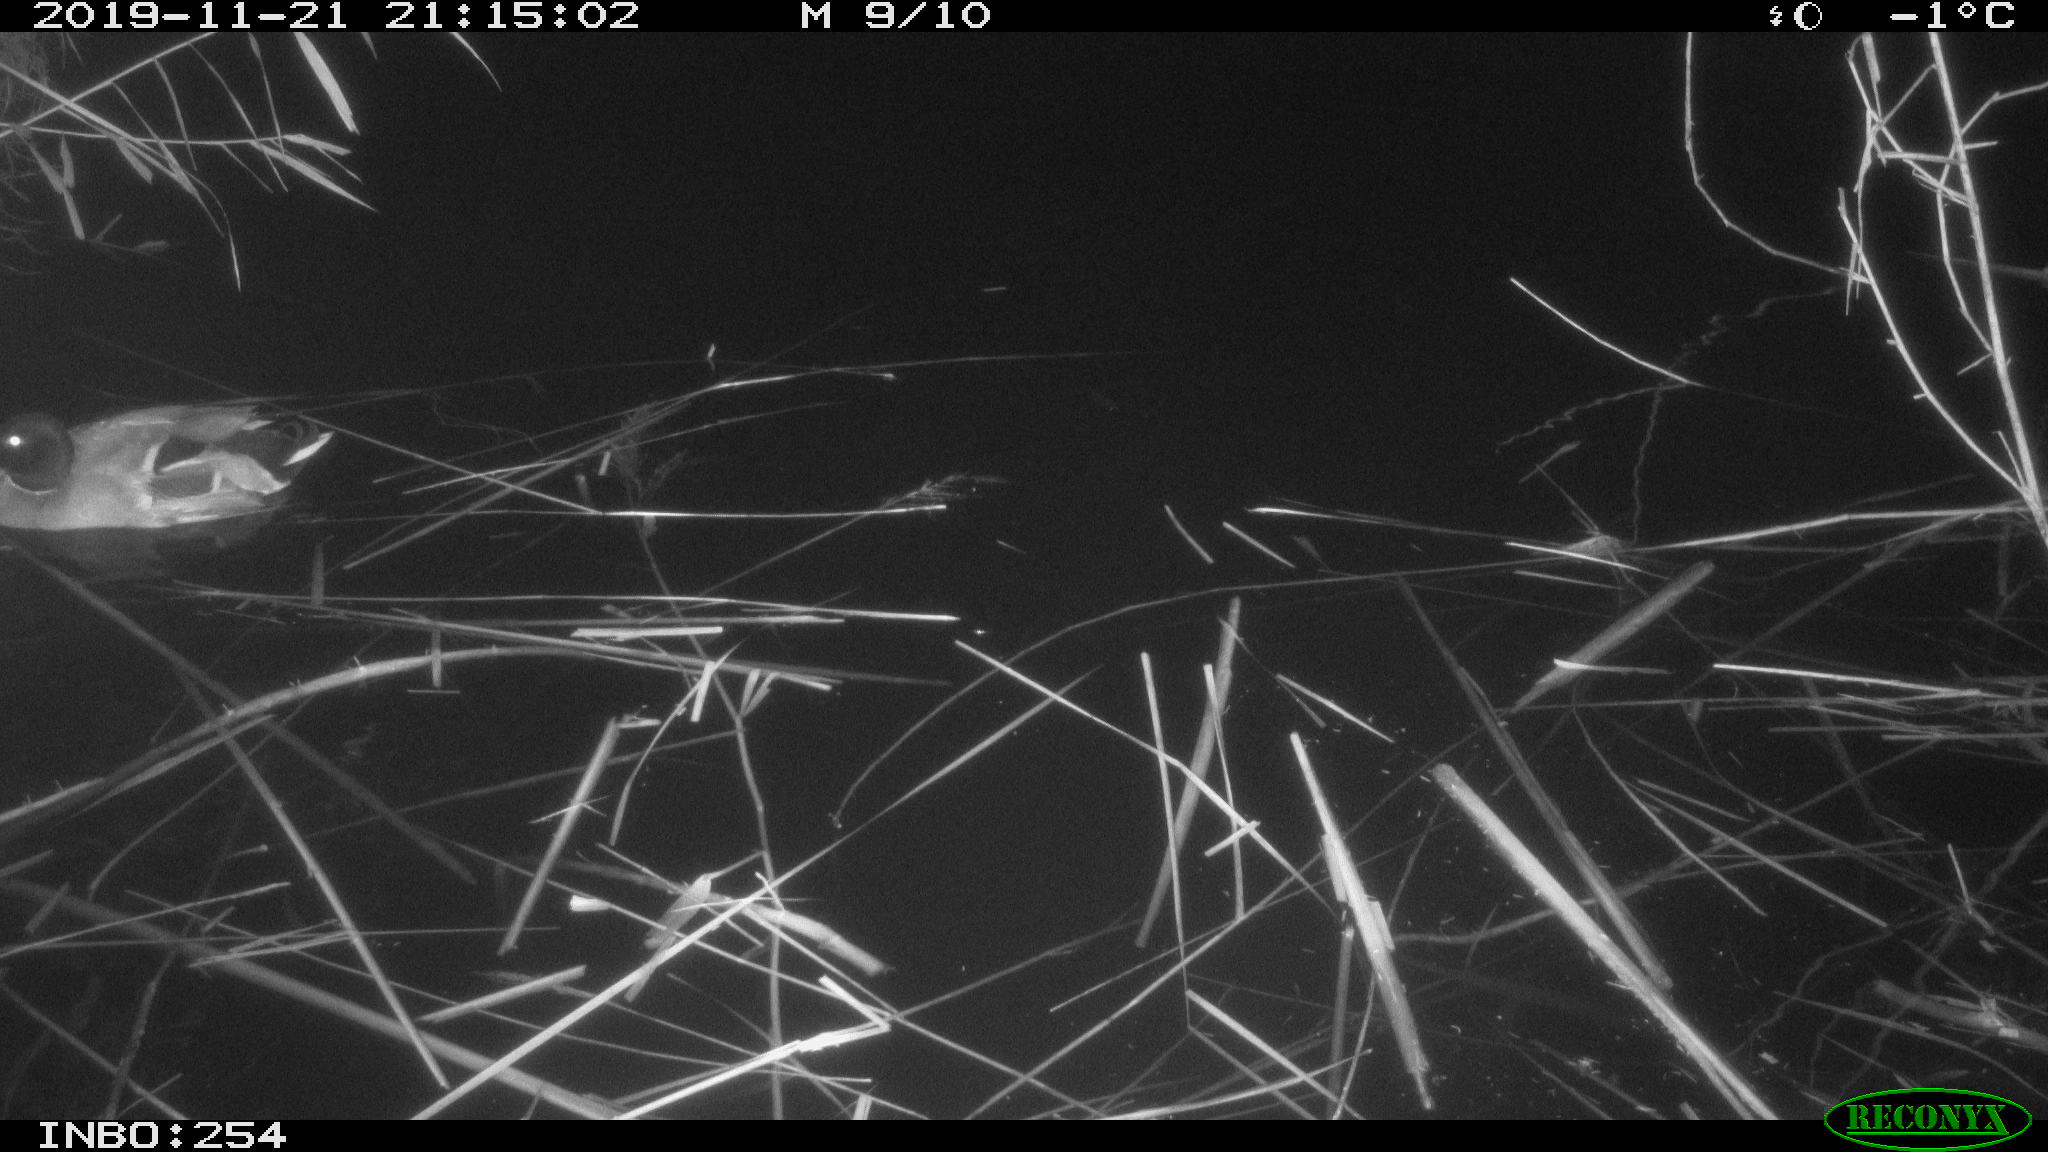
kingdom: Animalia
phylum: Chordata
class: Aves
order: Anseriformes
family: Anatidae
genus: Anas
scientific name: Anas platyrhynchos
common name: Mallard
